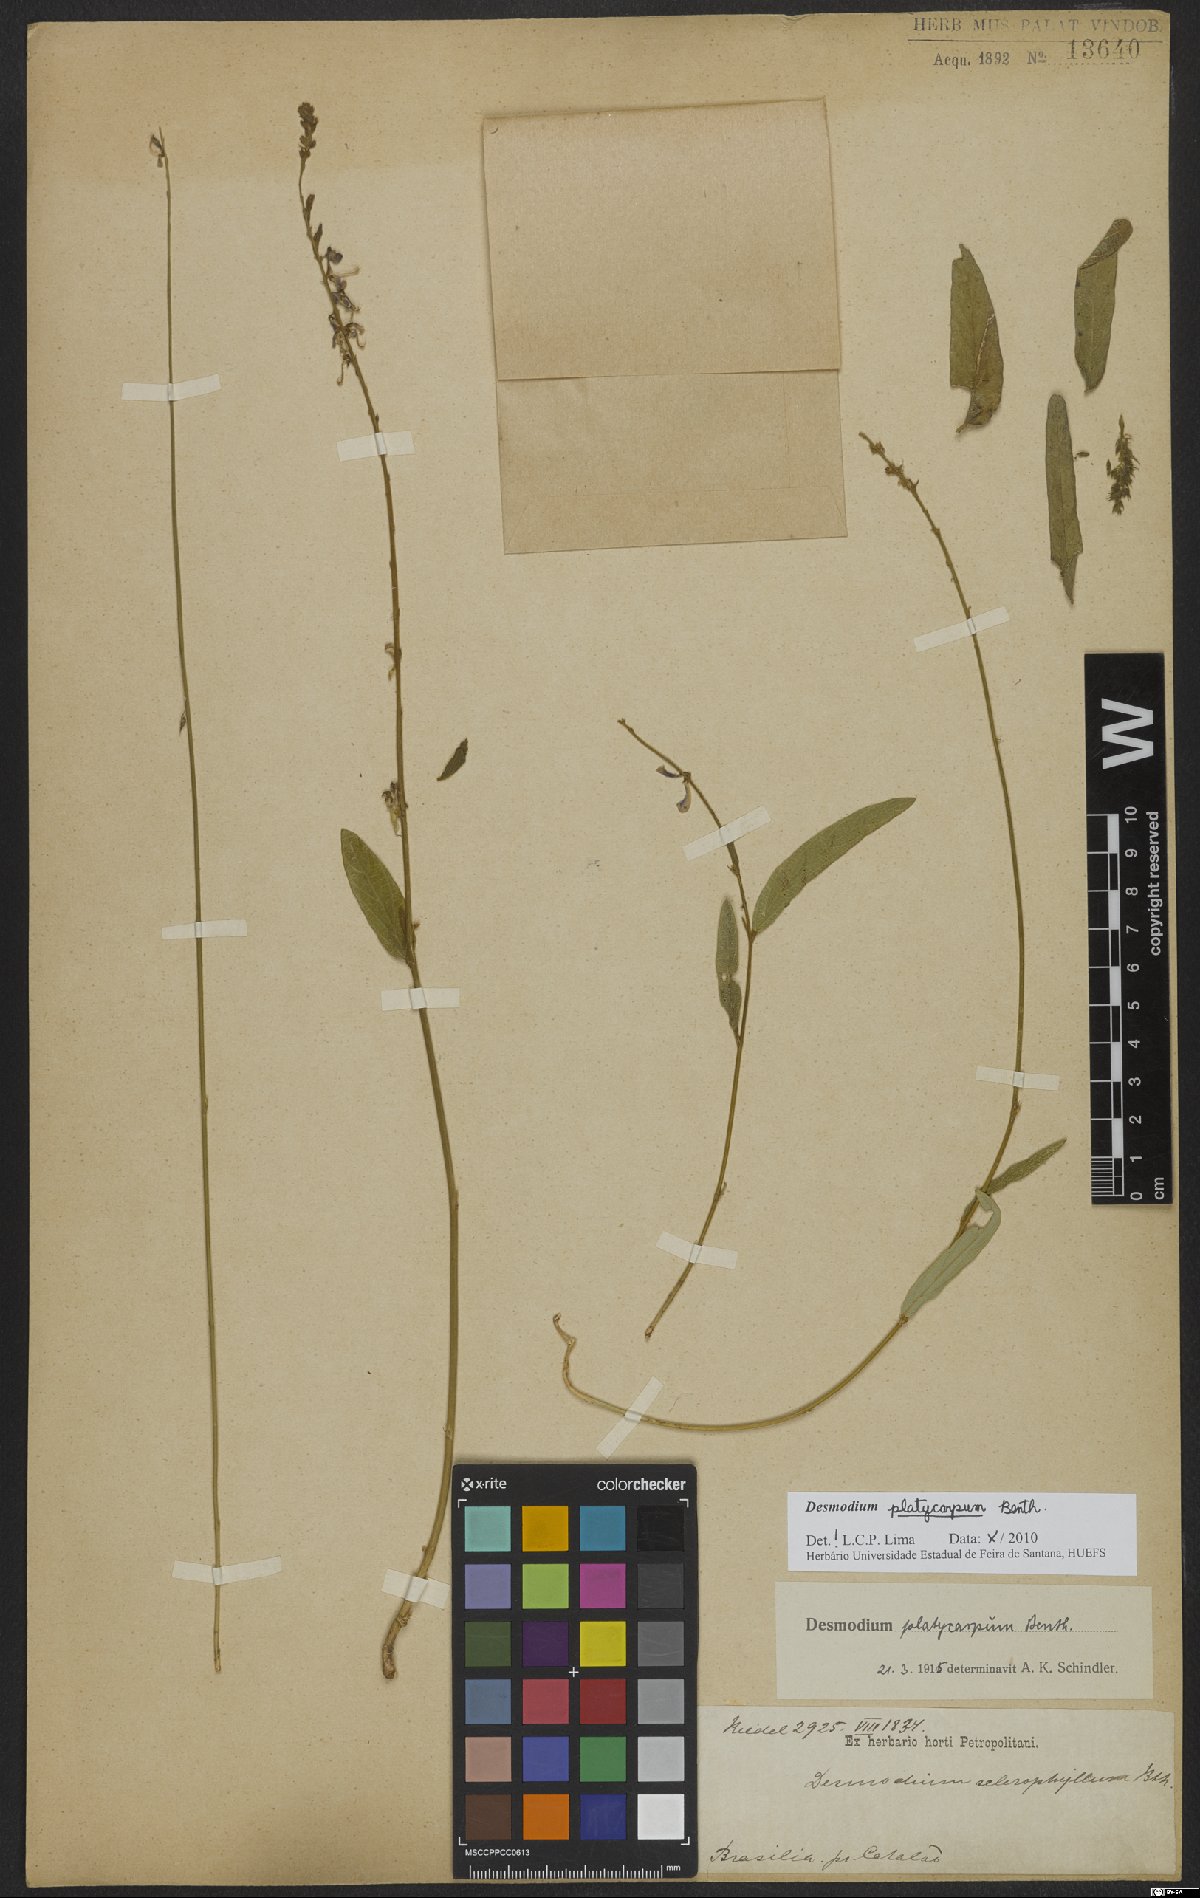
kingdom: Plantae
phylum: Tracheophyta
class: Magnoliopsida
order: Fabales
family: Fabaceae
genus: Desmodium
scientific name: Desmodium platycarpum
